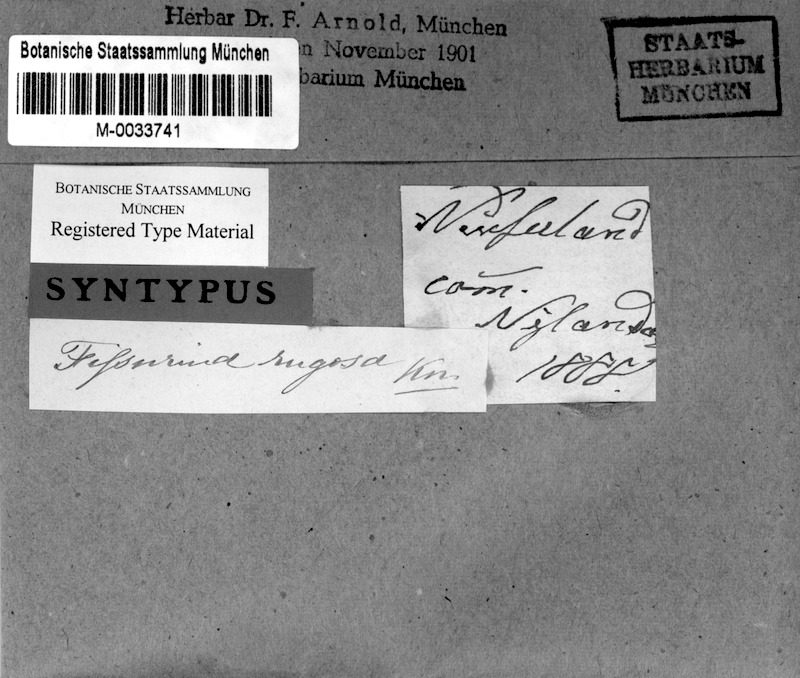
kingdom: Fungi
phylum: Ascomycota
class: Lecanoromycetes
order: Ostropales
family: Graphidaceae
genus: Fissurina
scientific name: Fissurina insidiosa
